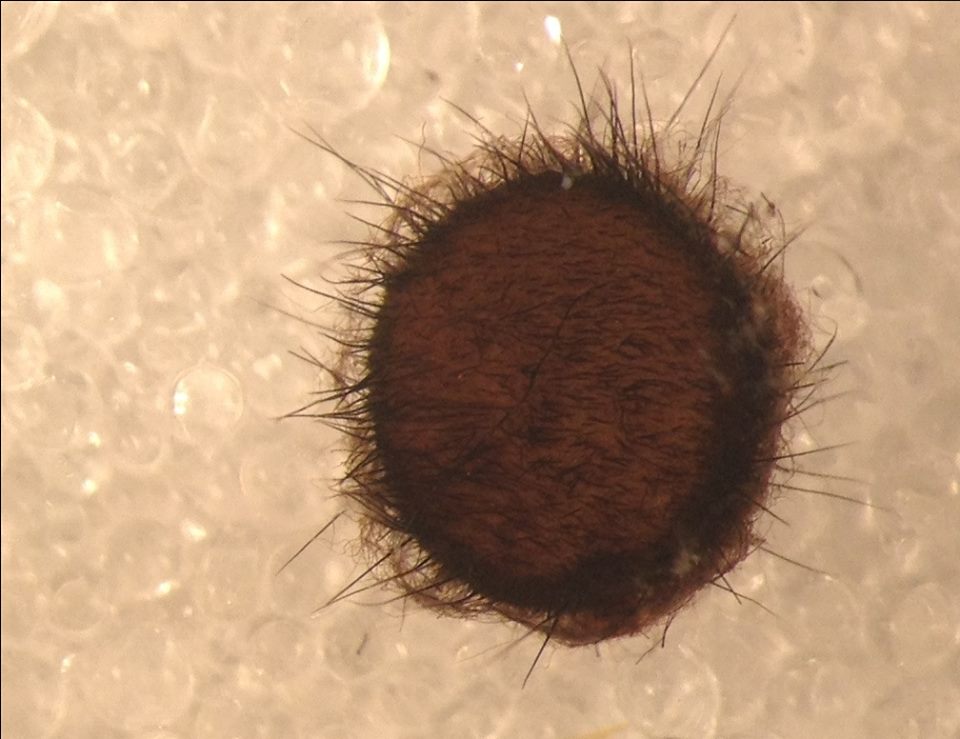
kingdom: Fungi
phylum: Ascomycota
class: Pezizomycetes
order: Pezizales
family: Chorioactidaceae
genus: Desmazierella
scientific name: Desmazierella acicola
